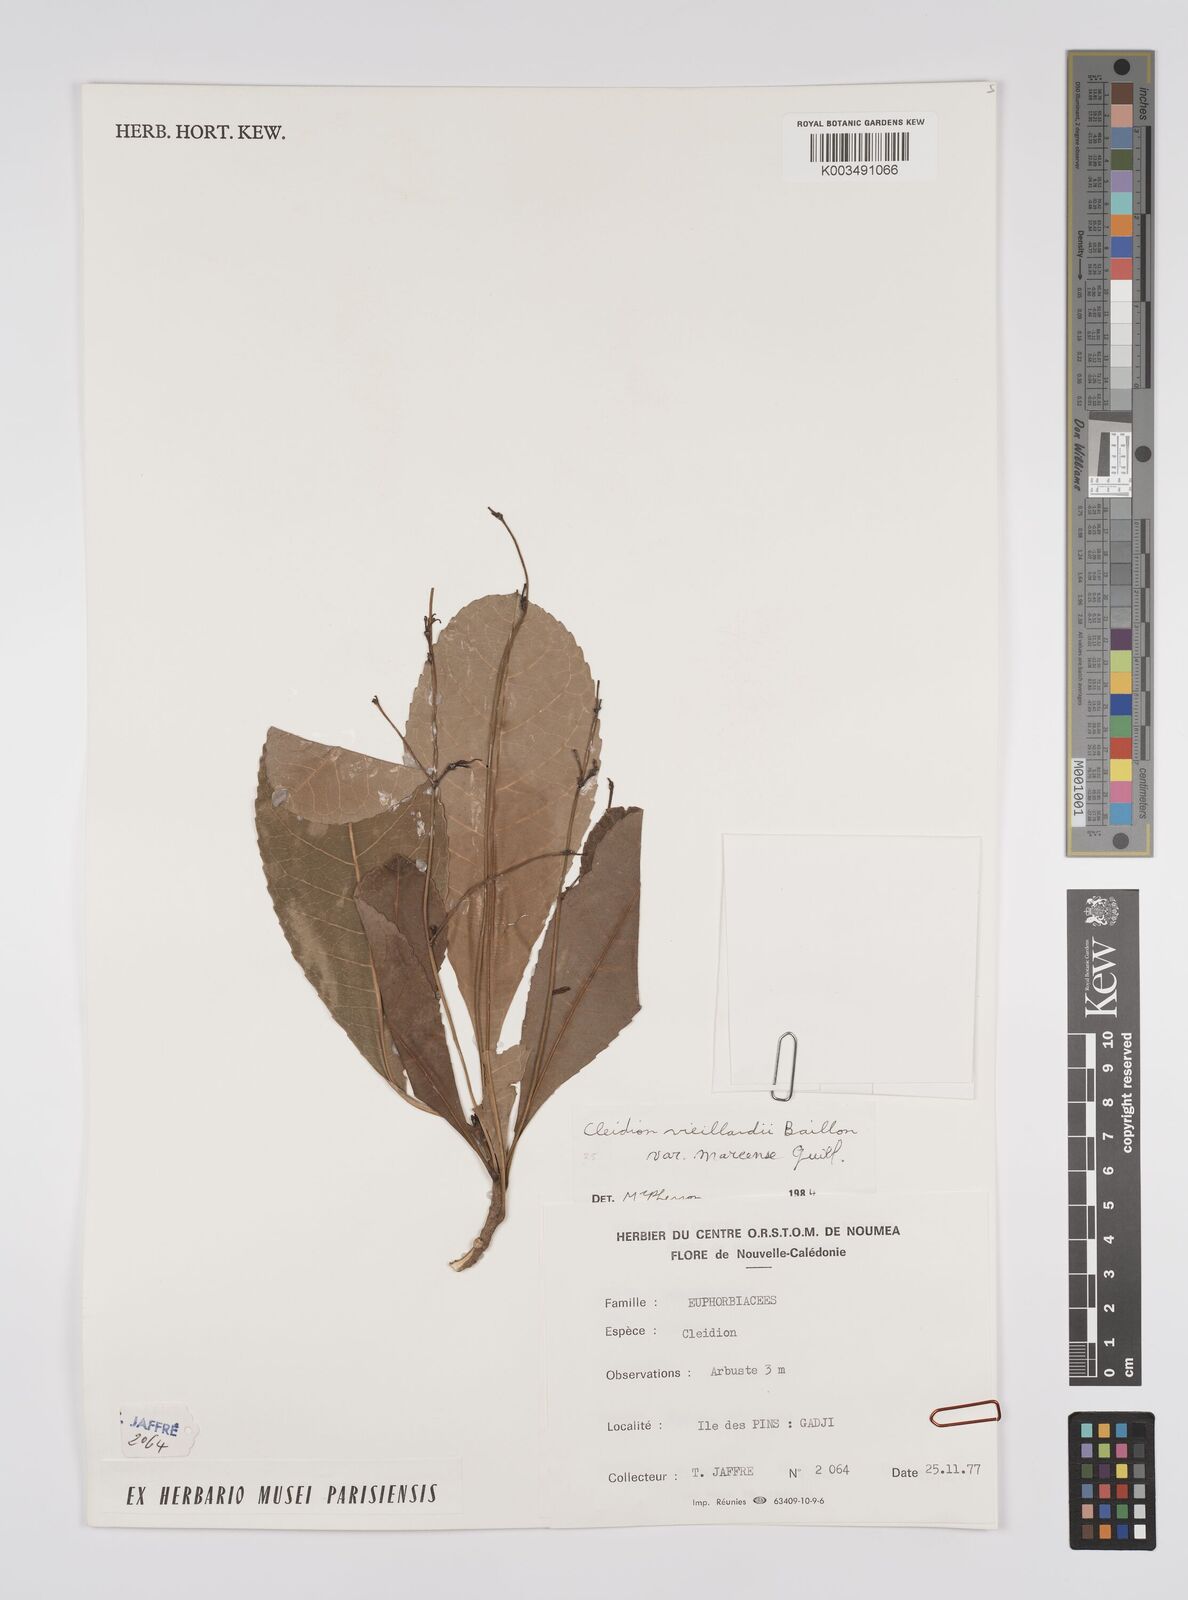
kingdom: Plantae
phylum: Tracheophyta
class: Magnoliopsida
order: Malpighiales
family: Euphorbiaceae
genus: Cleidion
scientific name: Cleidion vieillardii
